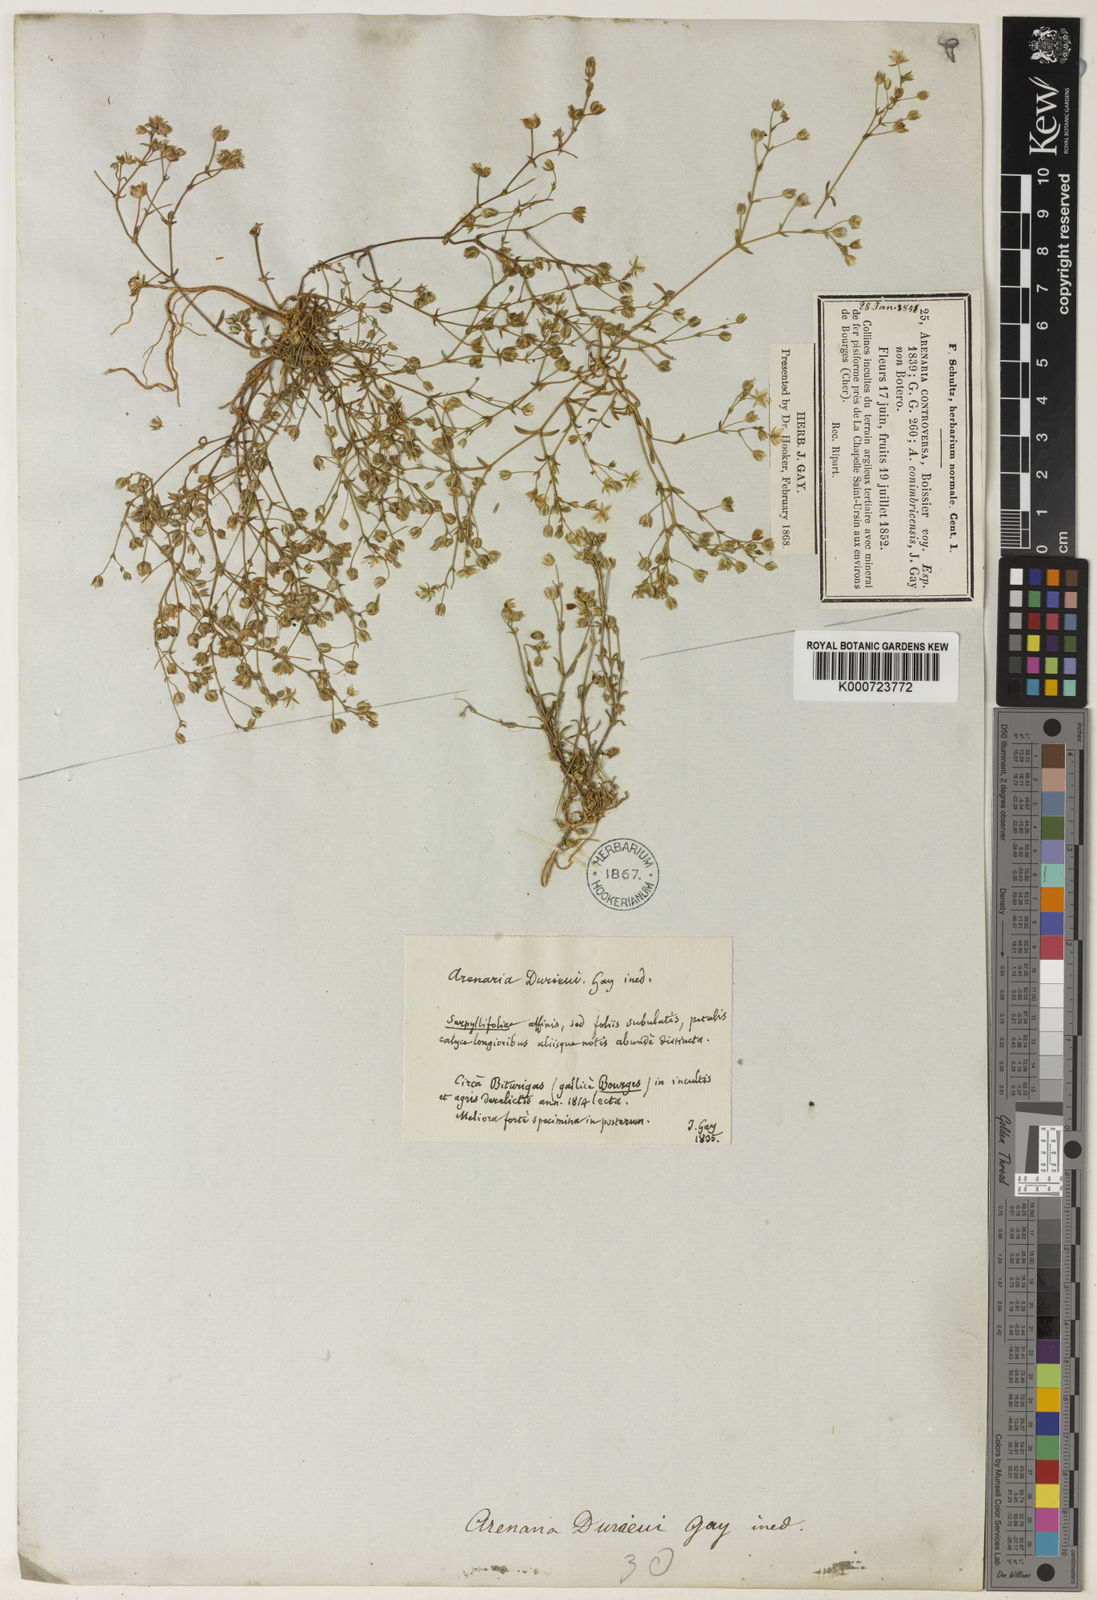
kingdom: Plantae
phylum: Tracheophyta
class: Magnoliopsida
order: Caryophyllales
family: Caryophyllaceae
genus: Arenaria
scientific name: Arenaria controversa
